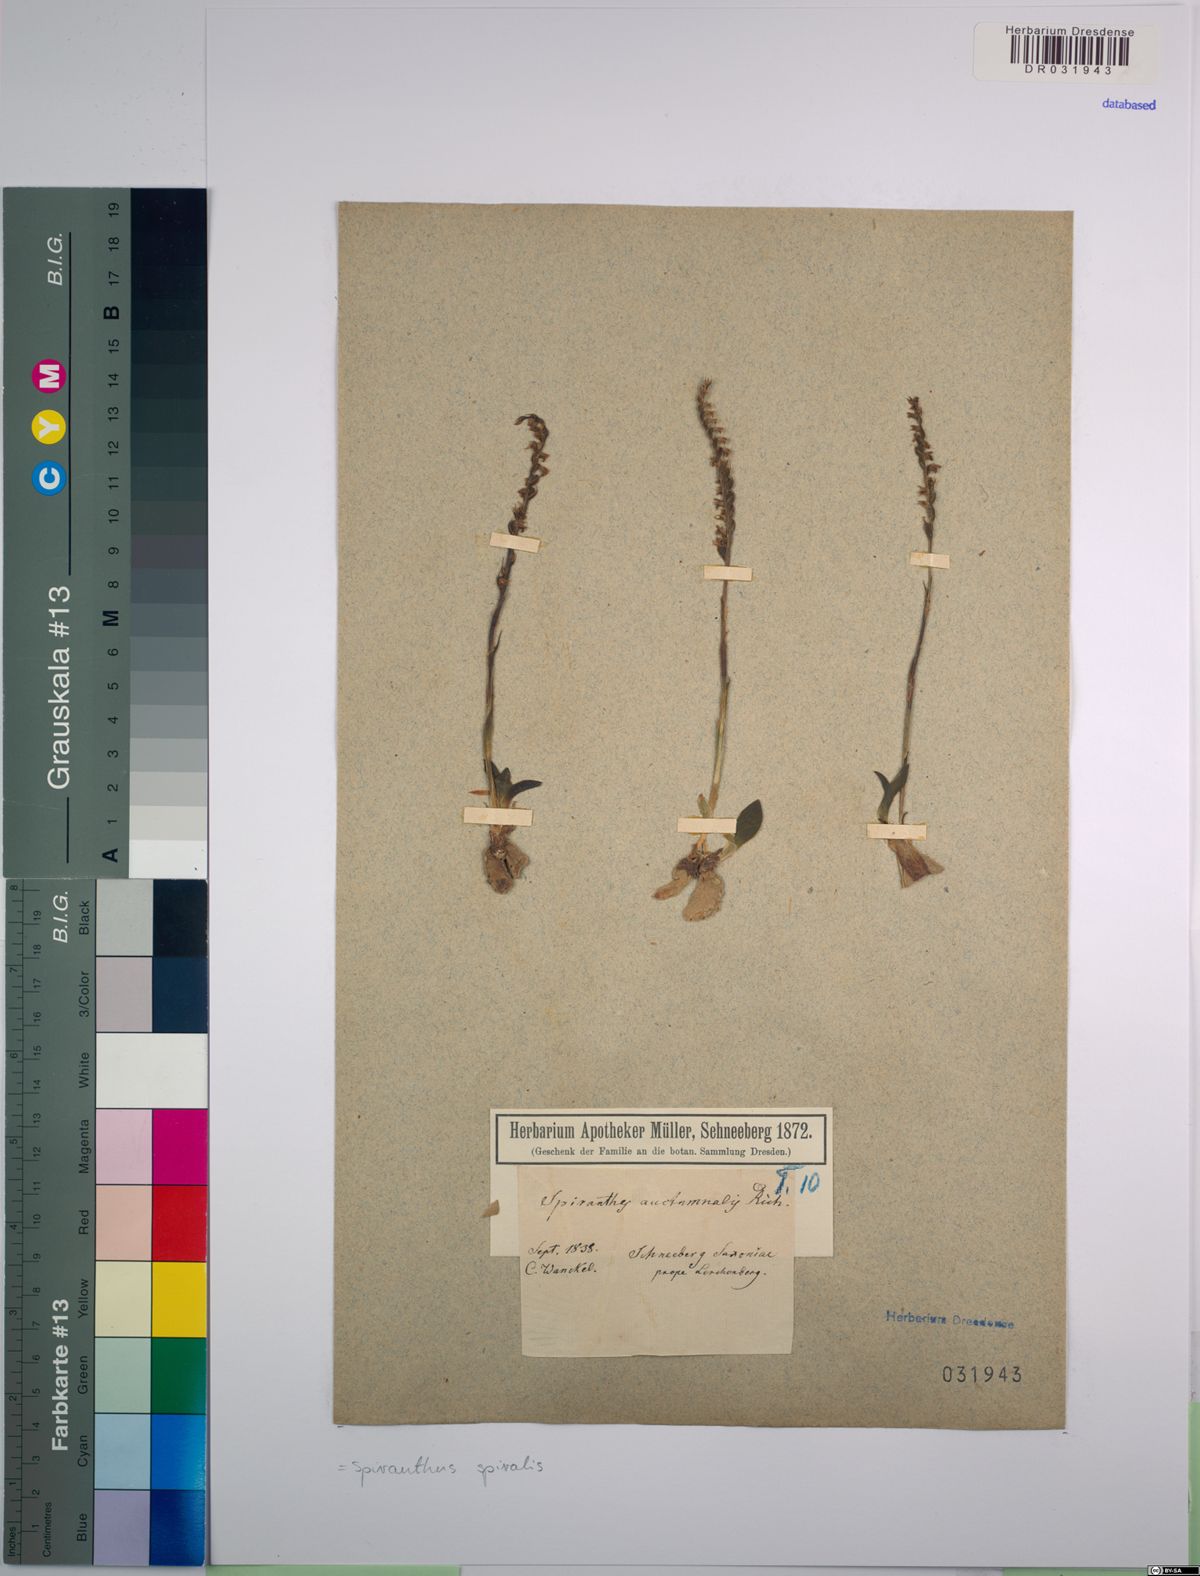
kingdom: Plantae
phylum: Tracheophyta
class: Liliopsida
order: Asparagales
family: Orchidaceae
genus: Spiranthes
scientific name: Spiranthes spiralis
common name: Autumn lady's-tresses
